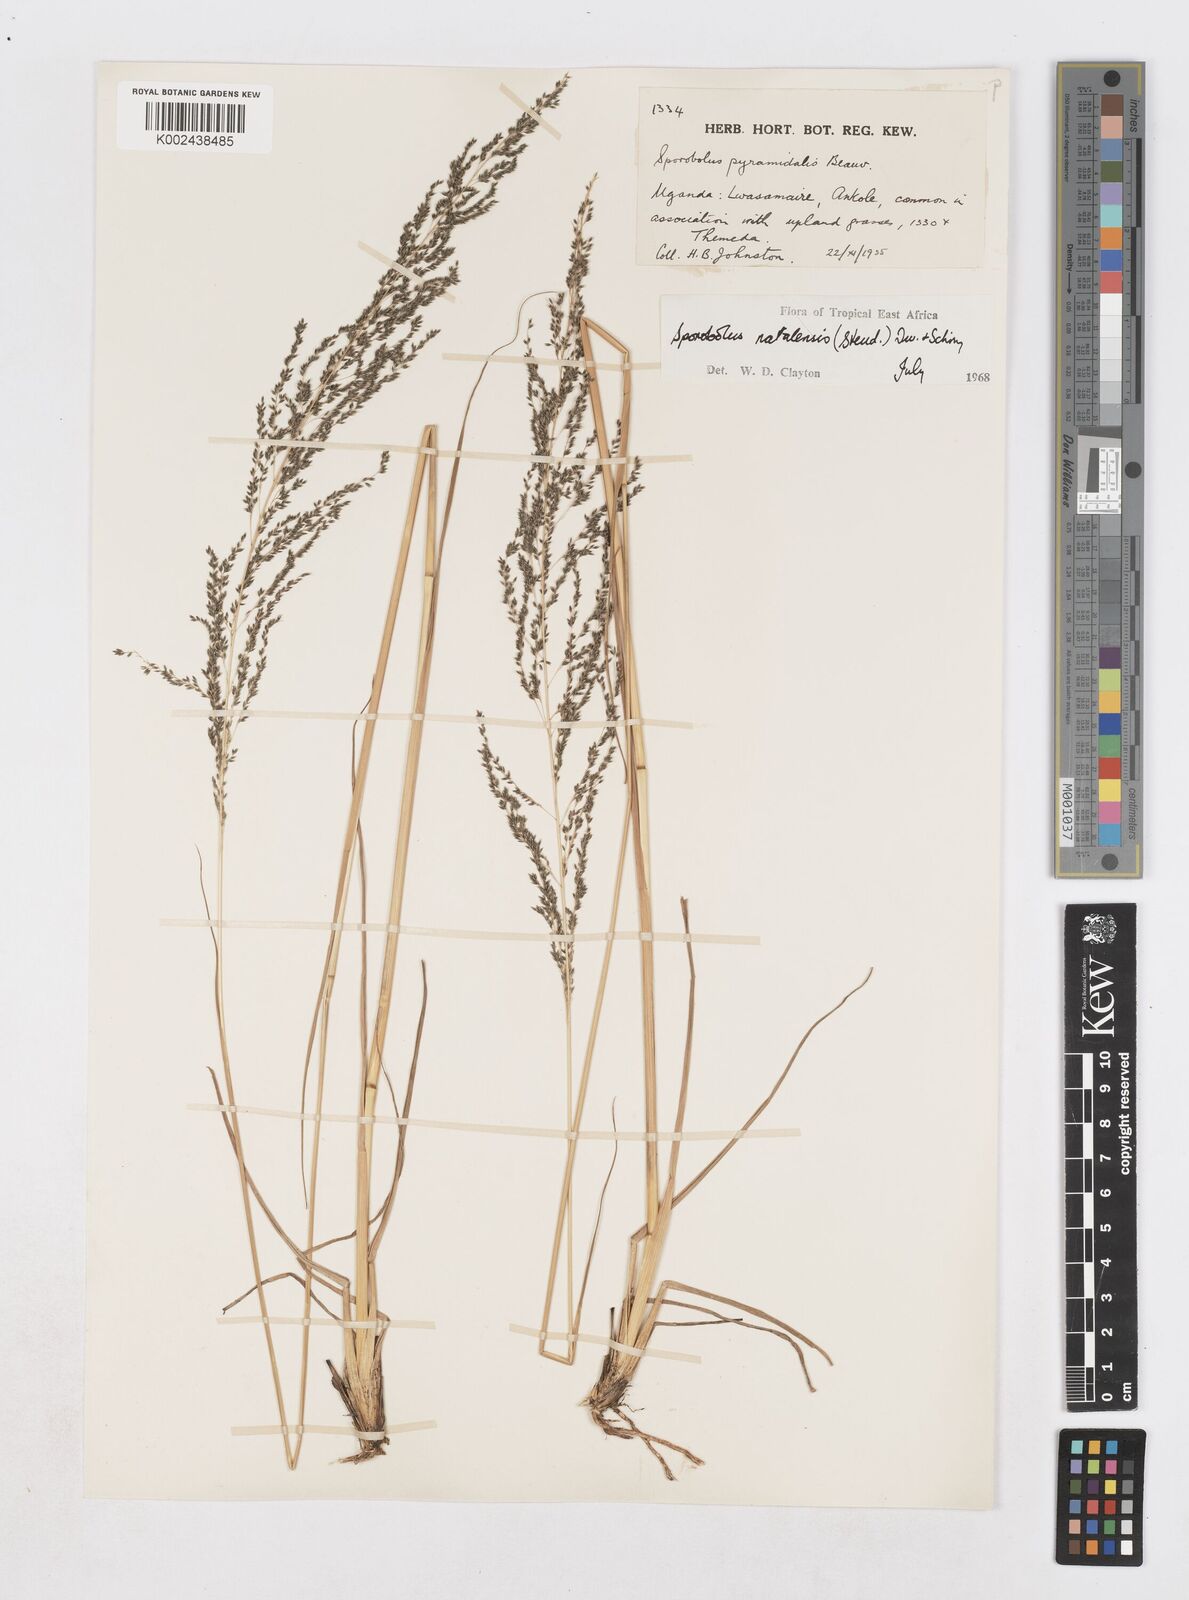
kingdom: Plantae
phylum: Tracheophyta
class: Liliopsida
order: Poales
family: Poaceae
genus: Sporobolus
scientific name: Sporobolus natalensis
